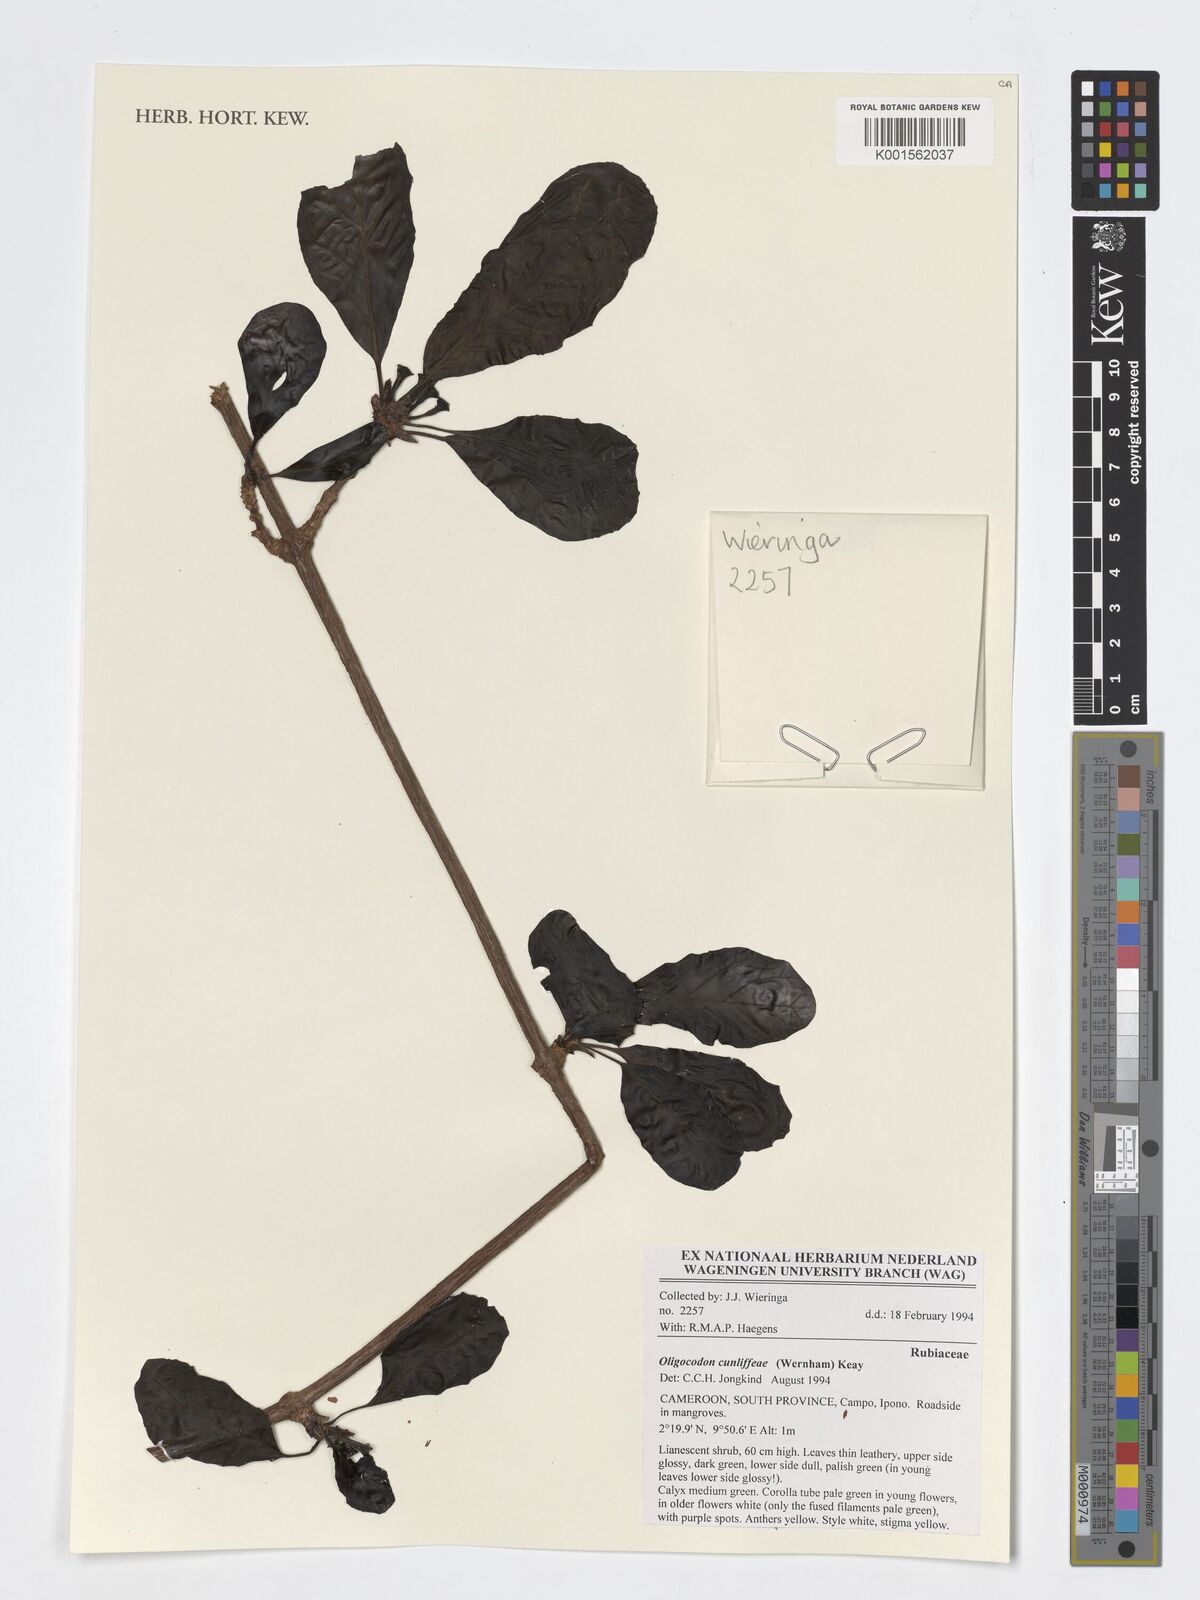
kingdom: Plantae
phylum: Tracheophyta
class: Magnoliopsida
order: Gentianales
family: Rubiaceae
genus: Oligocodon
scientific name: Oligocodon cunliffeae
